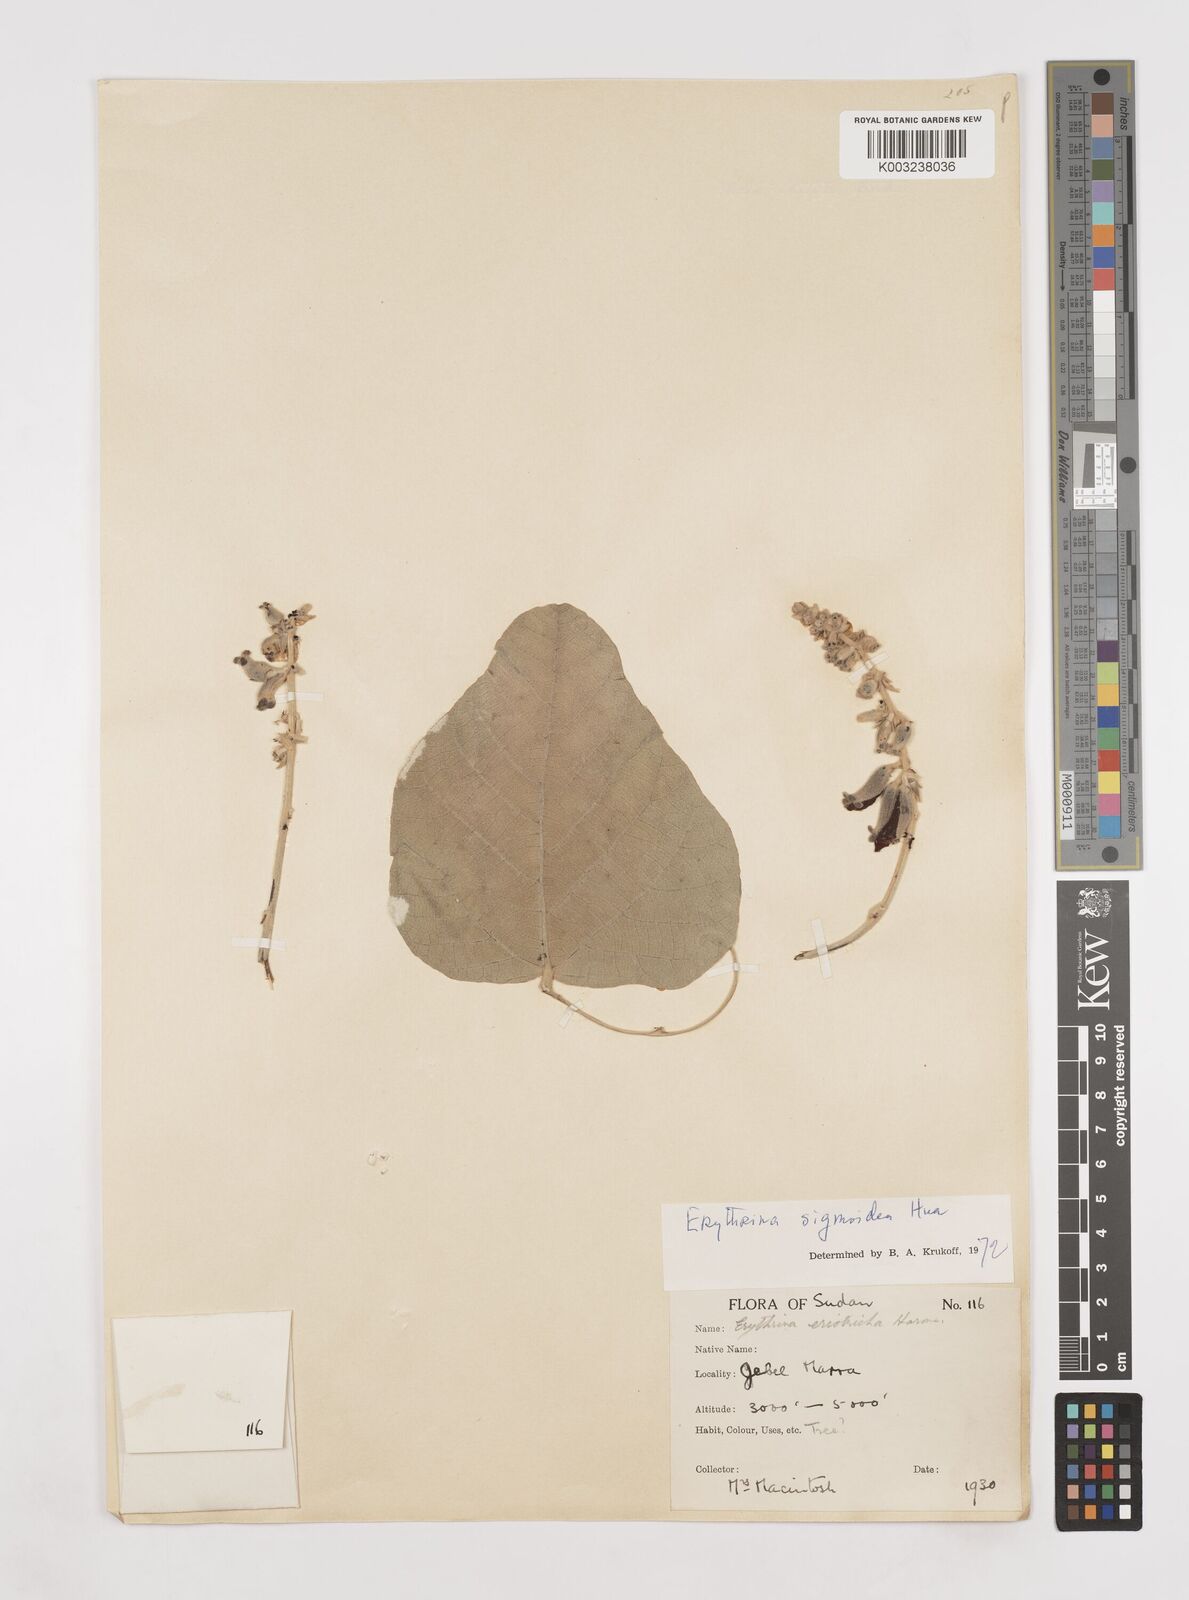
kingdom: Plantae
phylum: Tracheophyta
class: Magnoliopsida
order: Fabales
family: Fabaceae
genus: Erythrina
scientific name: Erythrina sigmoidea
